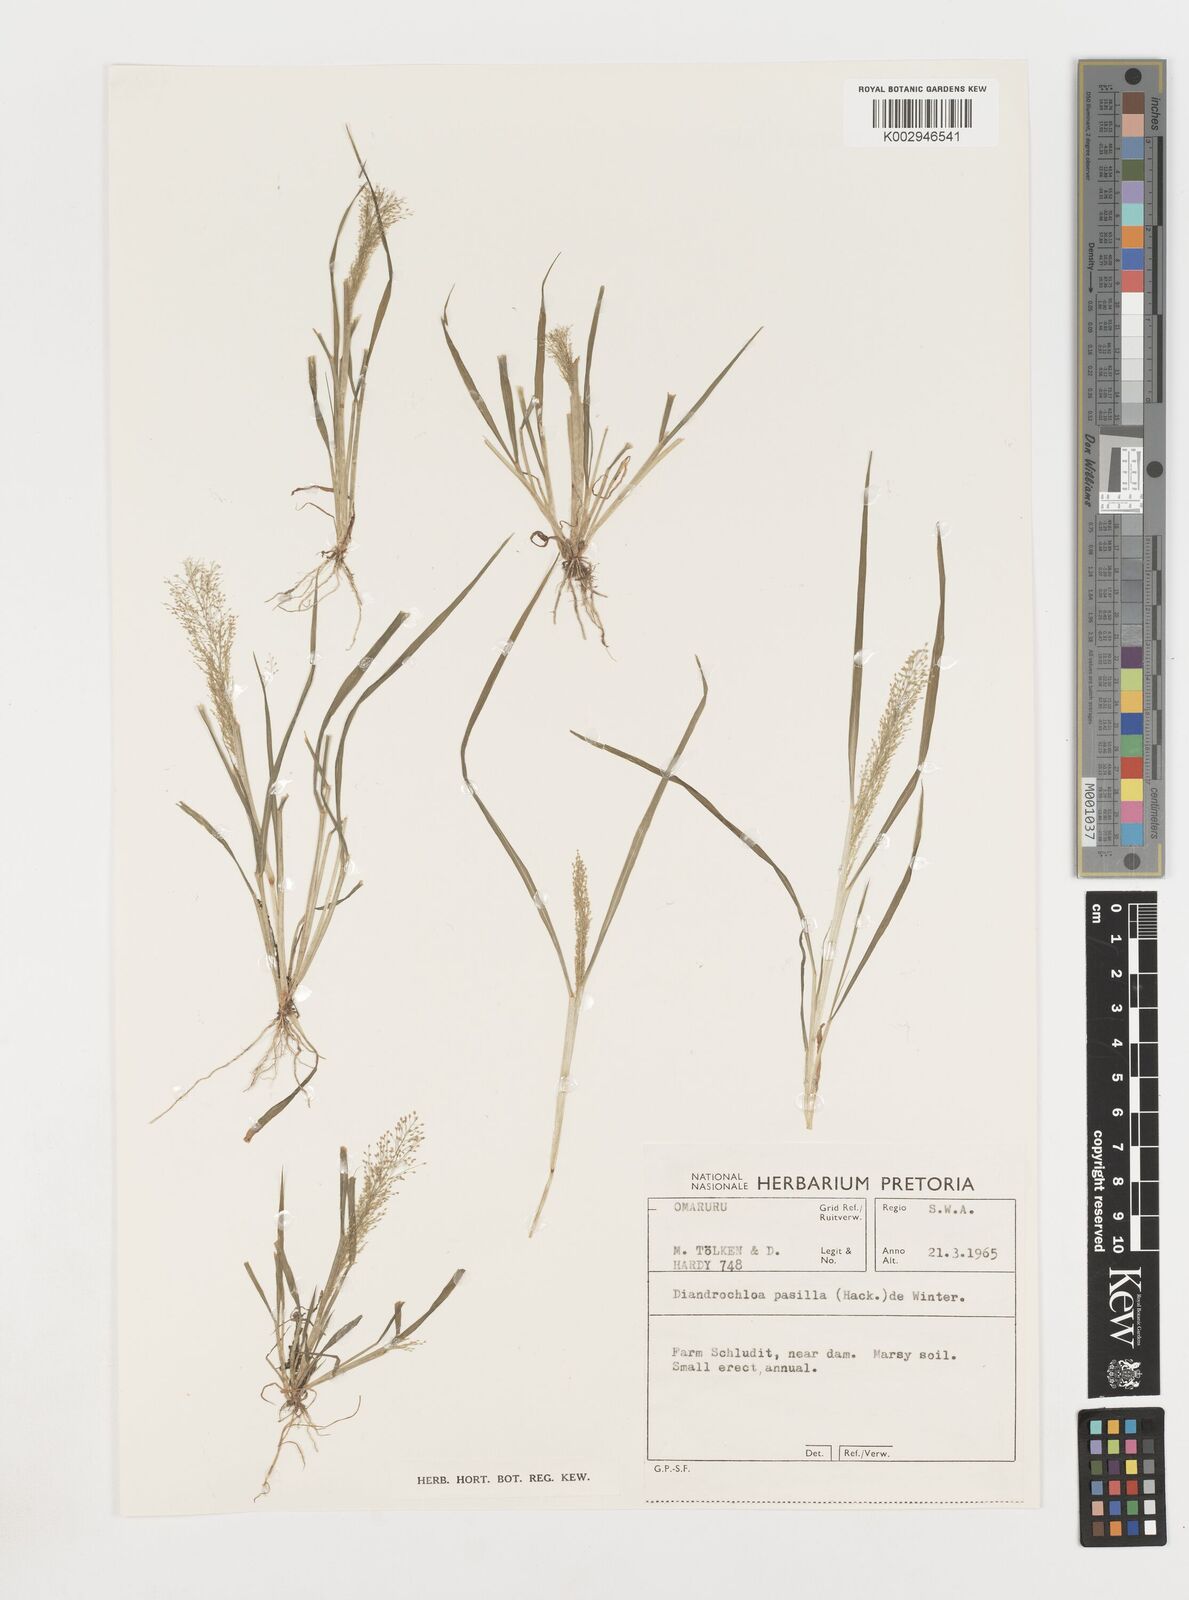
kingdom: Plantae
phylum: Tracheophyta
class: Liliopsida
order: Poales
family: Poaceae
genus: Eragrostis
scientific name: Eragrostis pusilla
